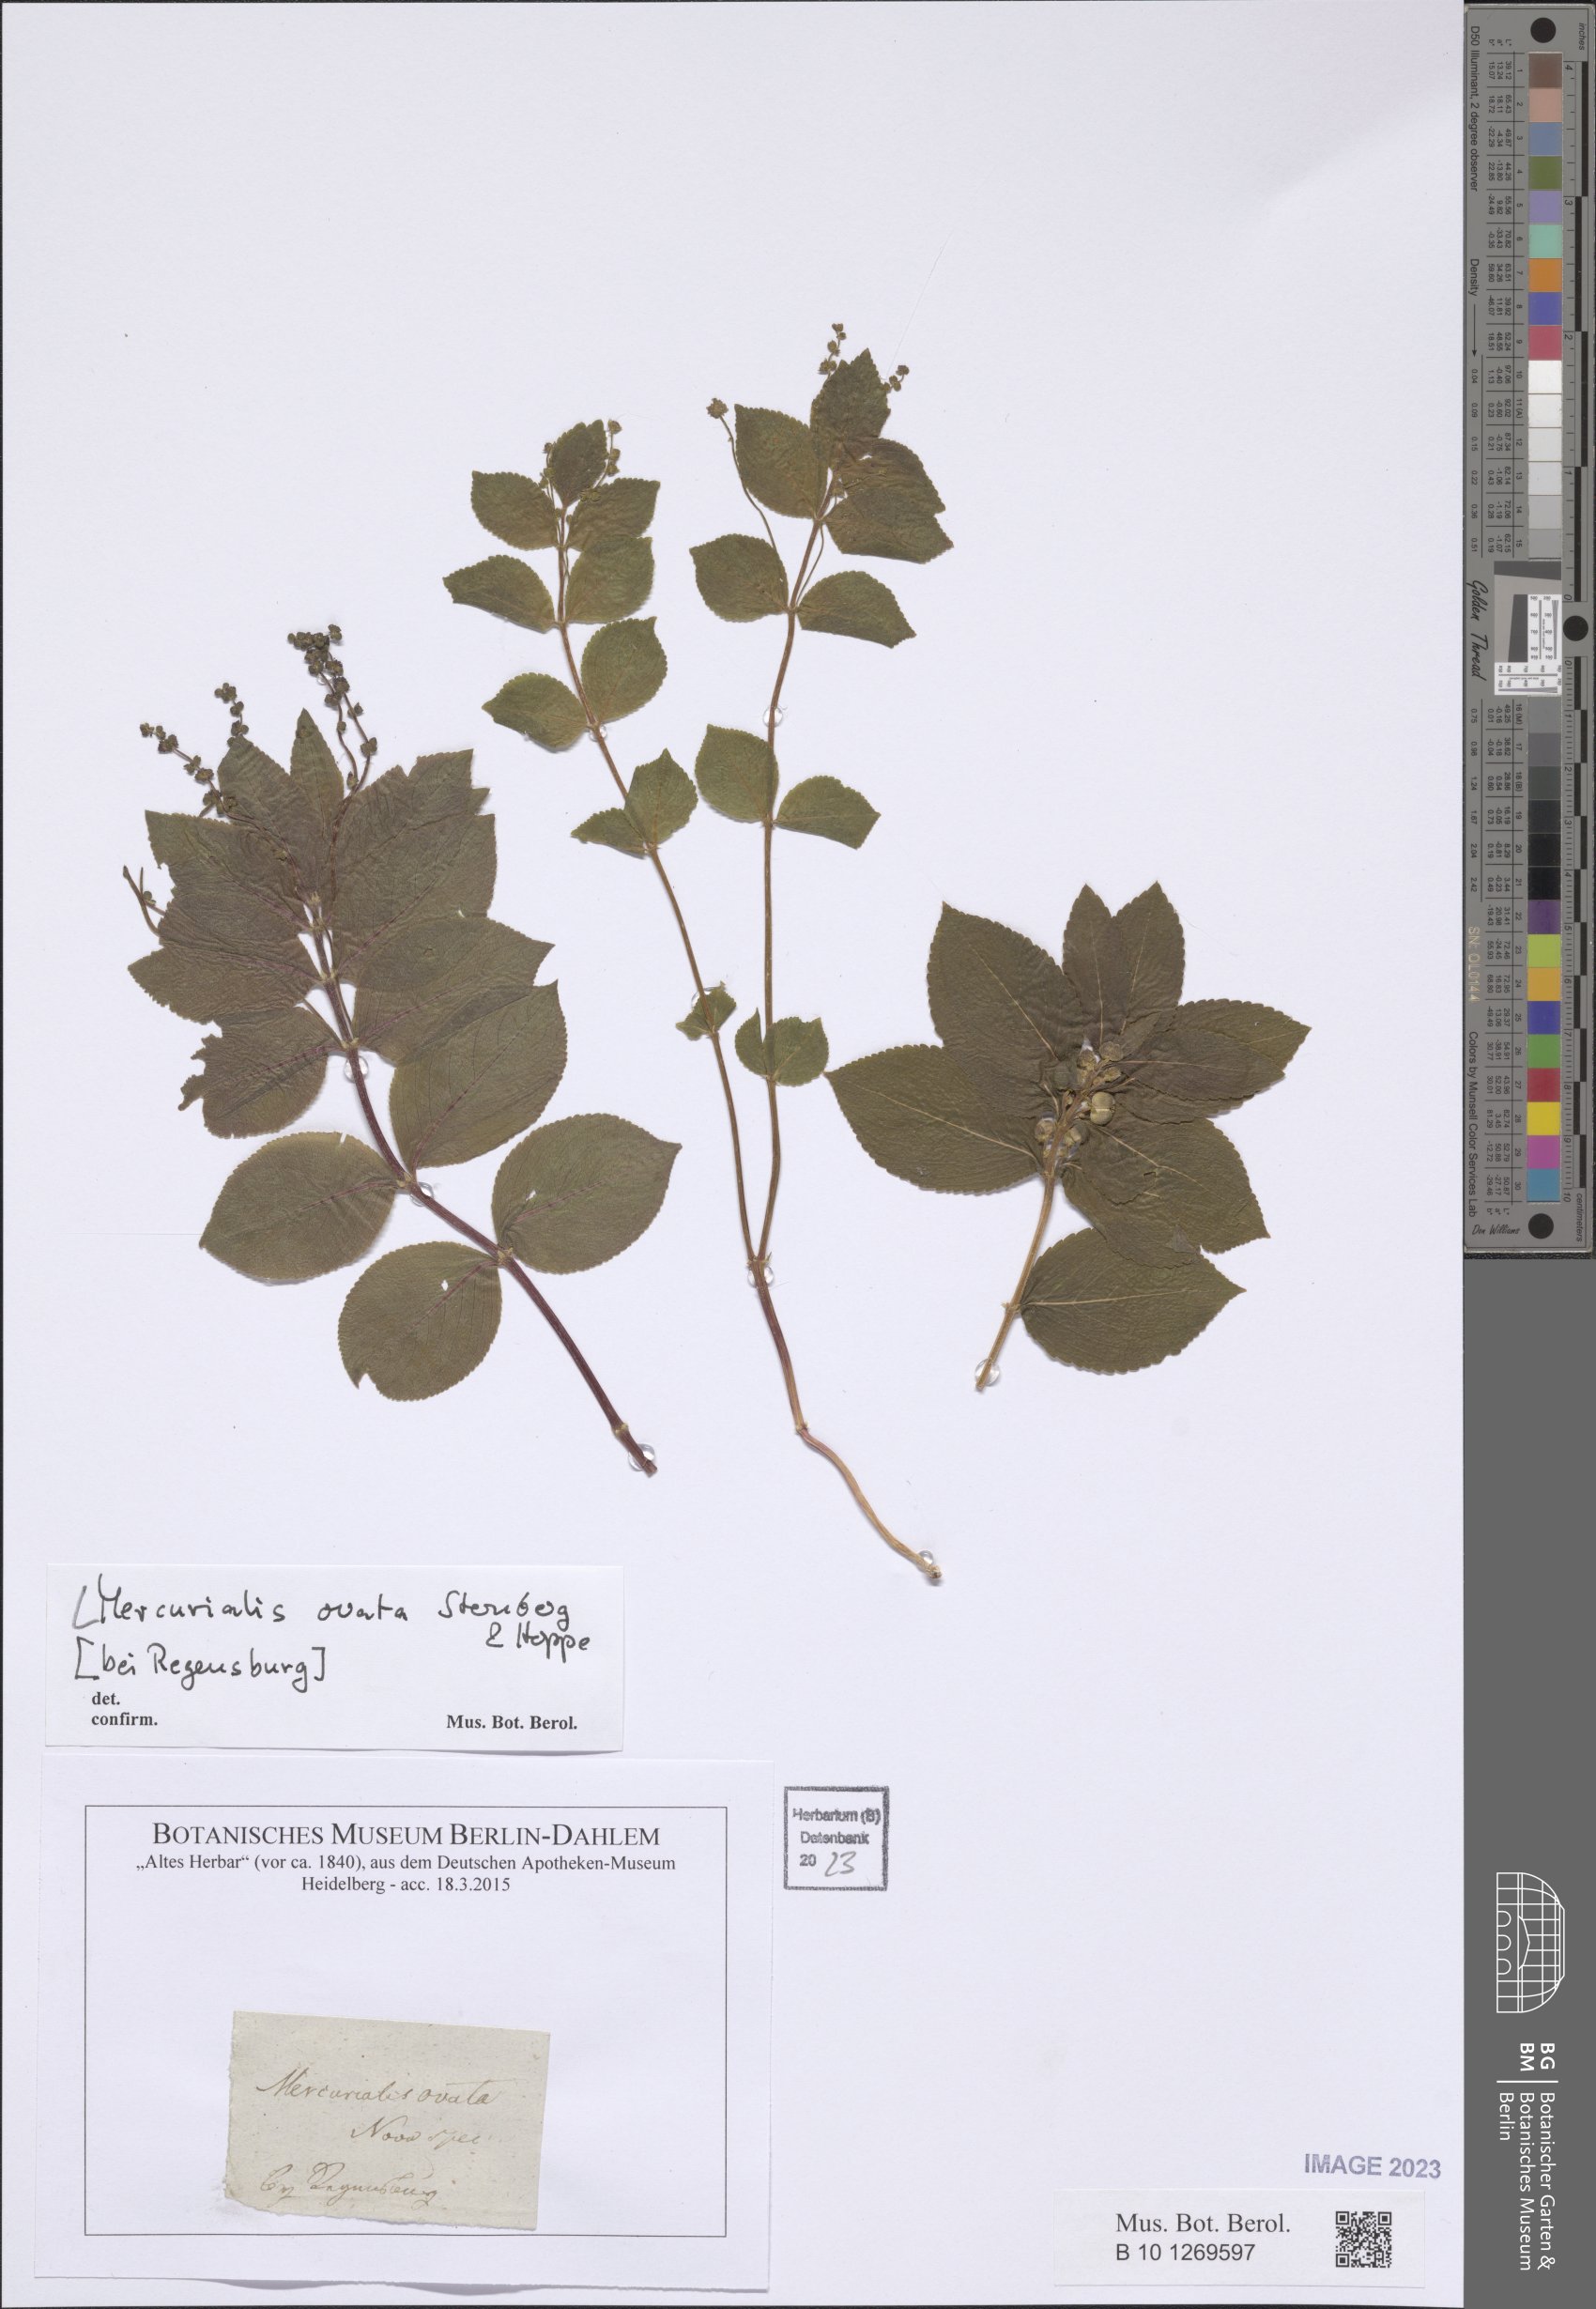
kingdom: Plantae
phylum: Tracheophyta
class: Magnoliopsida
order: Malpighiales
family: Euphorbiaceae
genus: Mercurialis
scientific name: Mercurialis ovata
